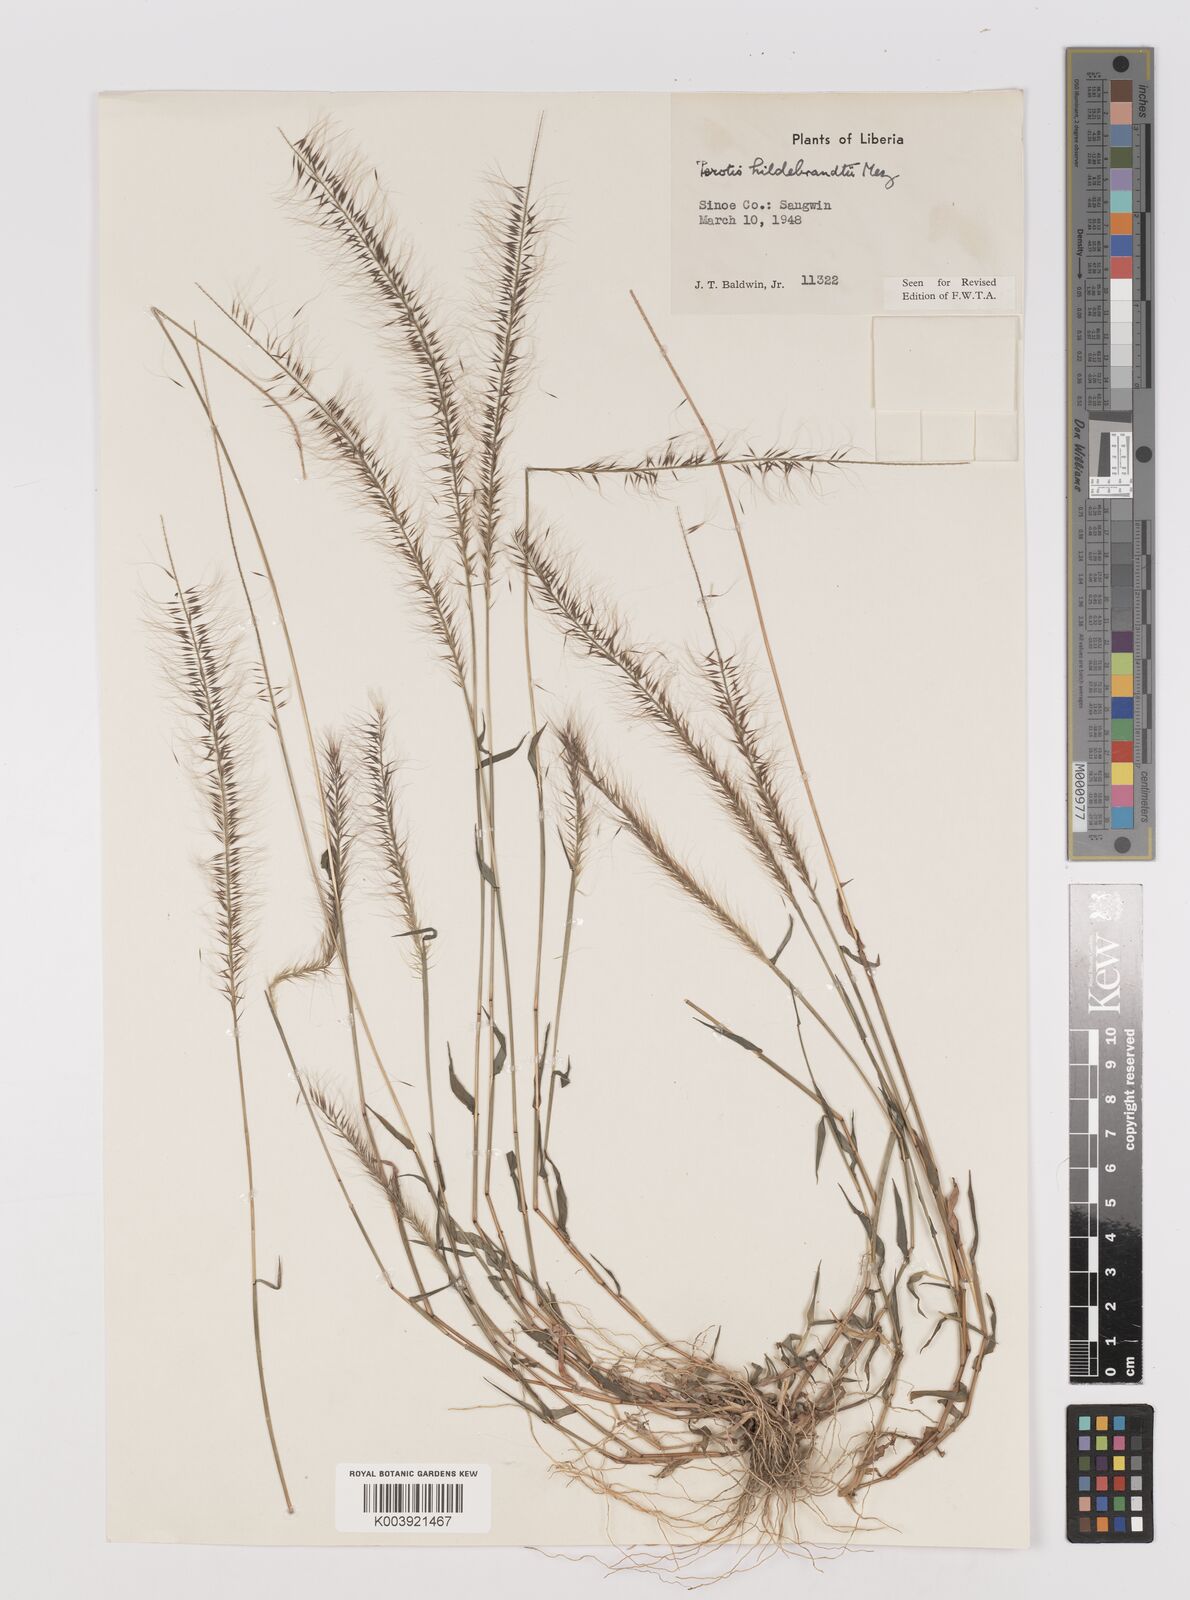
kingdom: Plantae
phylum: Tracheophyta
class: Liliopsida
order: Poales
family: Poaceae
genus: Perotis
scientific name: Perotis hildebrandtii
